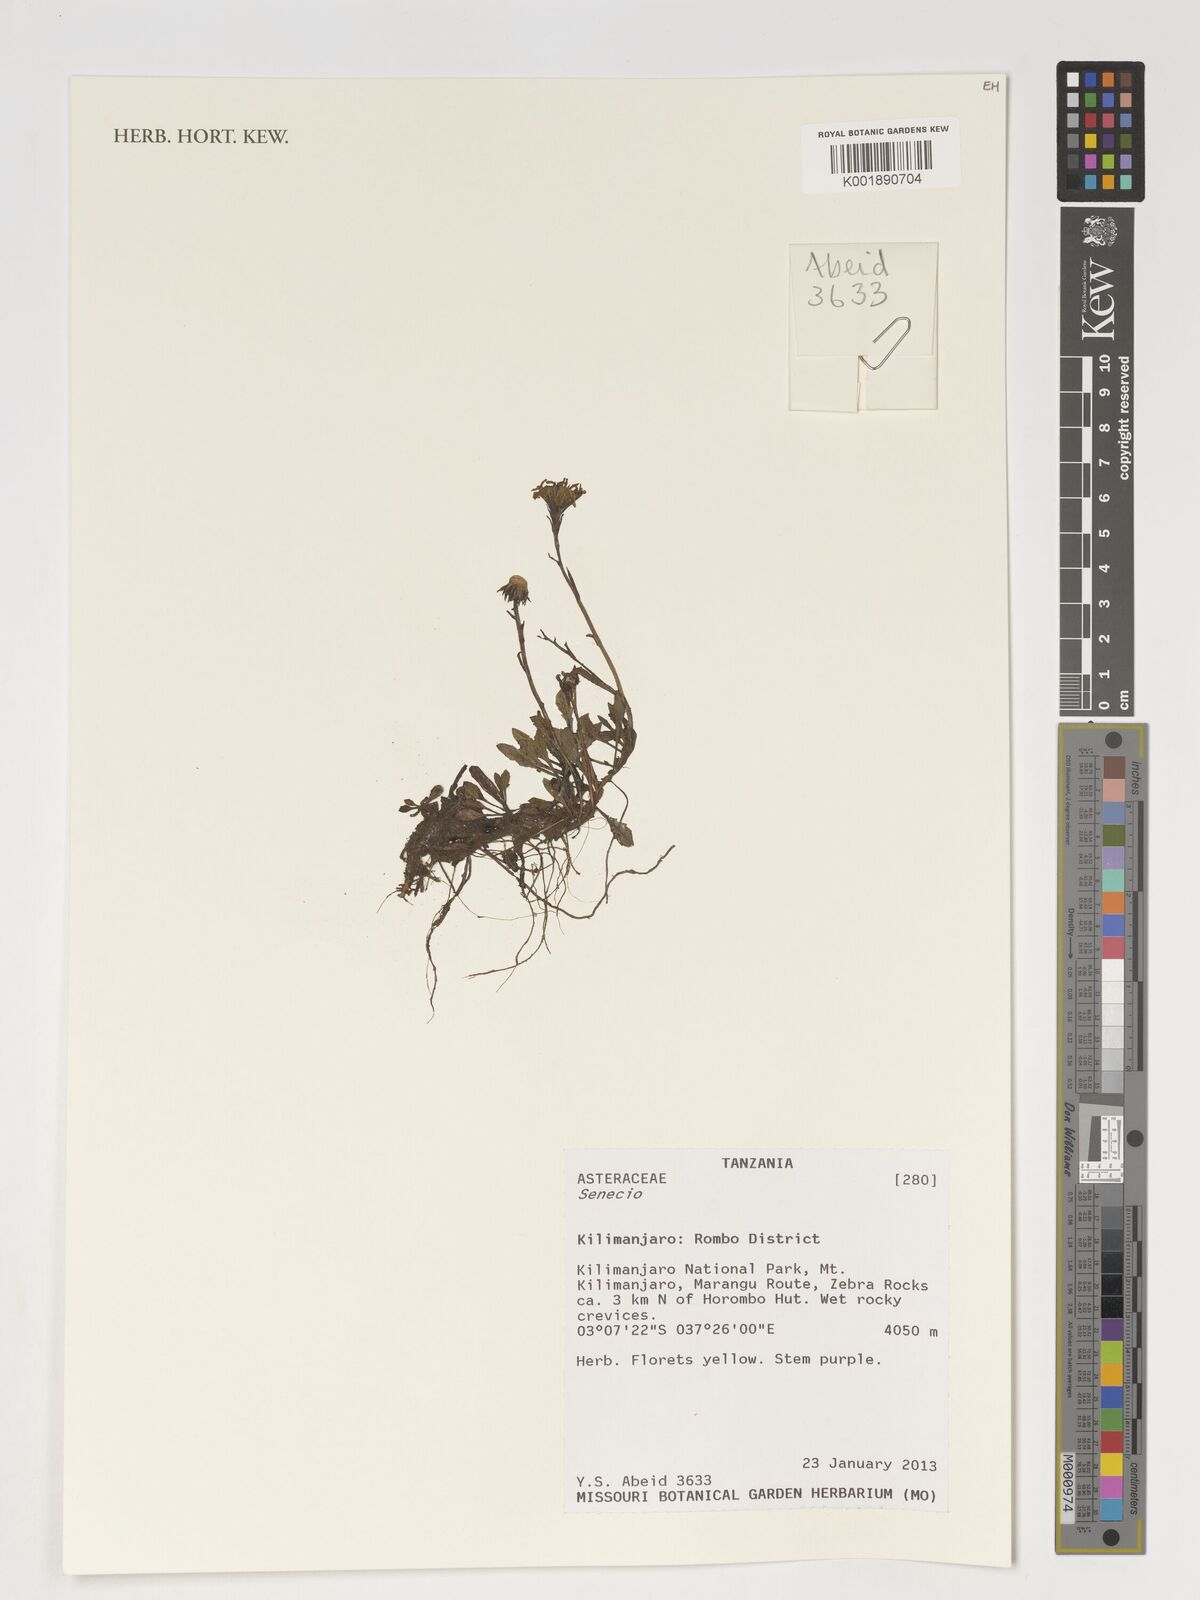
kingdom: Plantae
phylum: Tracheophyta
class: Magnoliopsida
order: Asterales
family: Asteraceae
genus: Senecio
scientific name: Senecio
